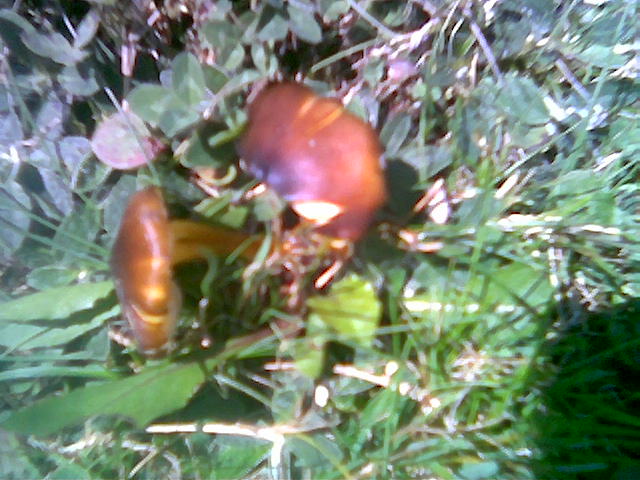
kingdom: Fungi
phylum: Basidiomycota
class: Agaricomycetes
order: Agaricales
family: Hygrophoraceae
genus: Hygrocybe
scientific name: Hygrocybe spadicea
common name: daddelbrun vokshat
